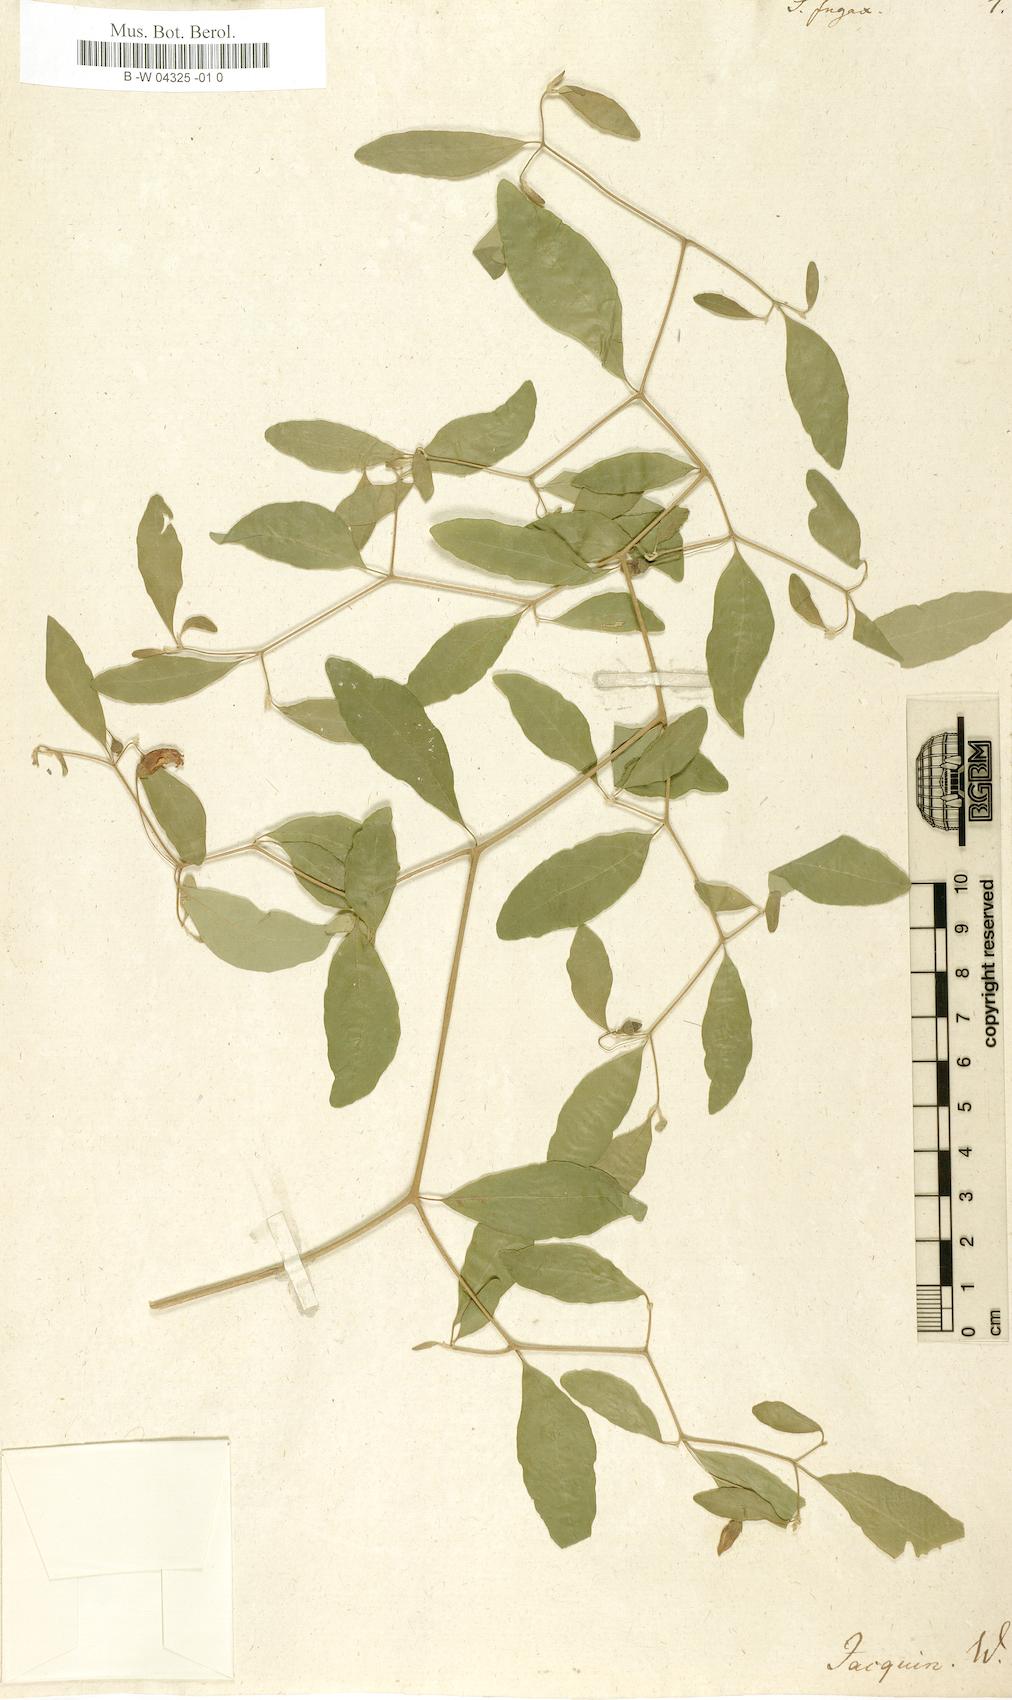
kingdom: Plantae
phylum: Tracheophyta
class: Magnoliopsida
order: Solanales
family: Solanaceae
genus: Lycianthes
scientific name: Lycianthes
